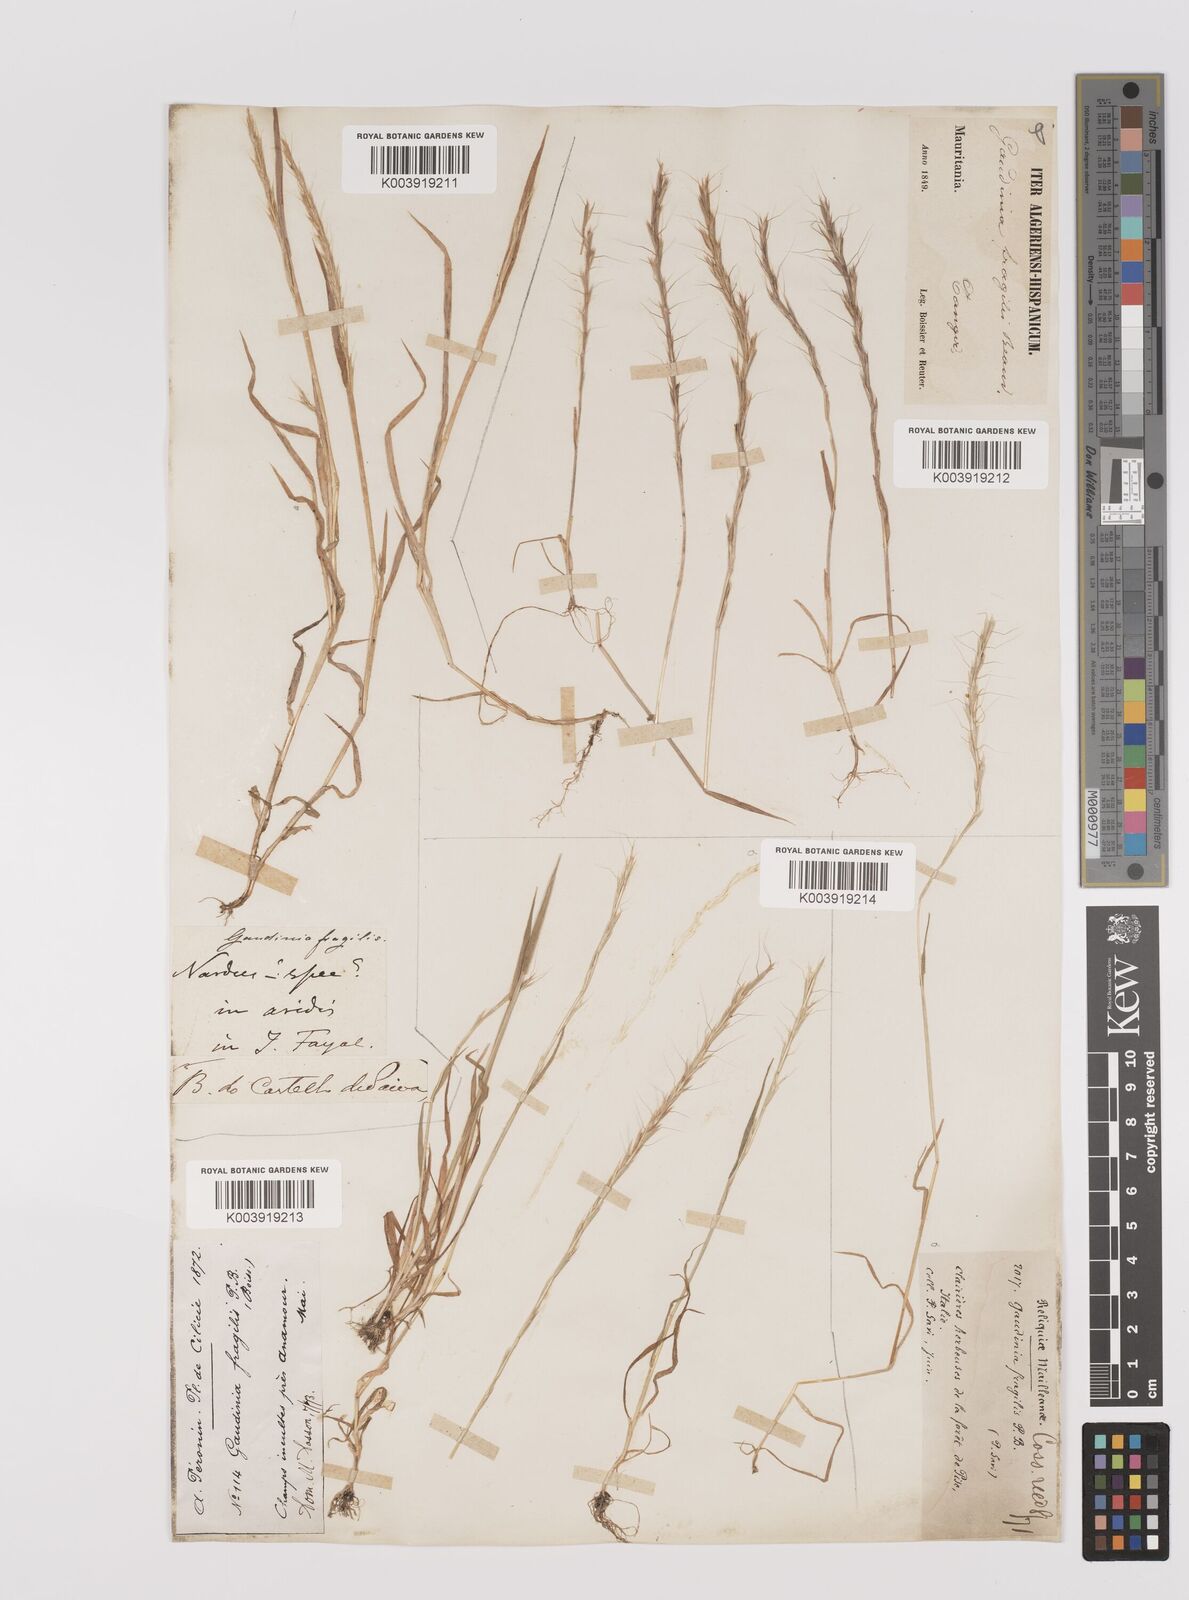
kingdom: Plantae
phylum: Tracheophyta
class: Liliopsida
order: Poales
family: Poaceae
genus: Gaudinia
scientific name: Gaudinia fragilis
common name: French oat-grass
